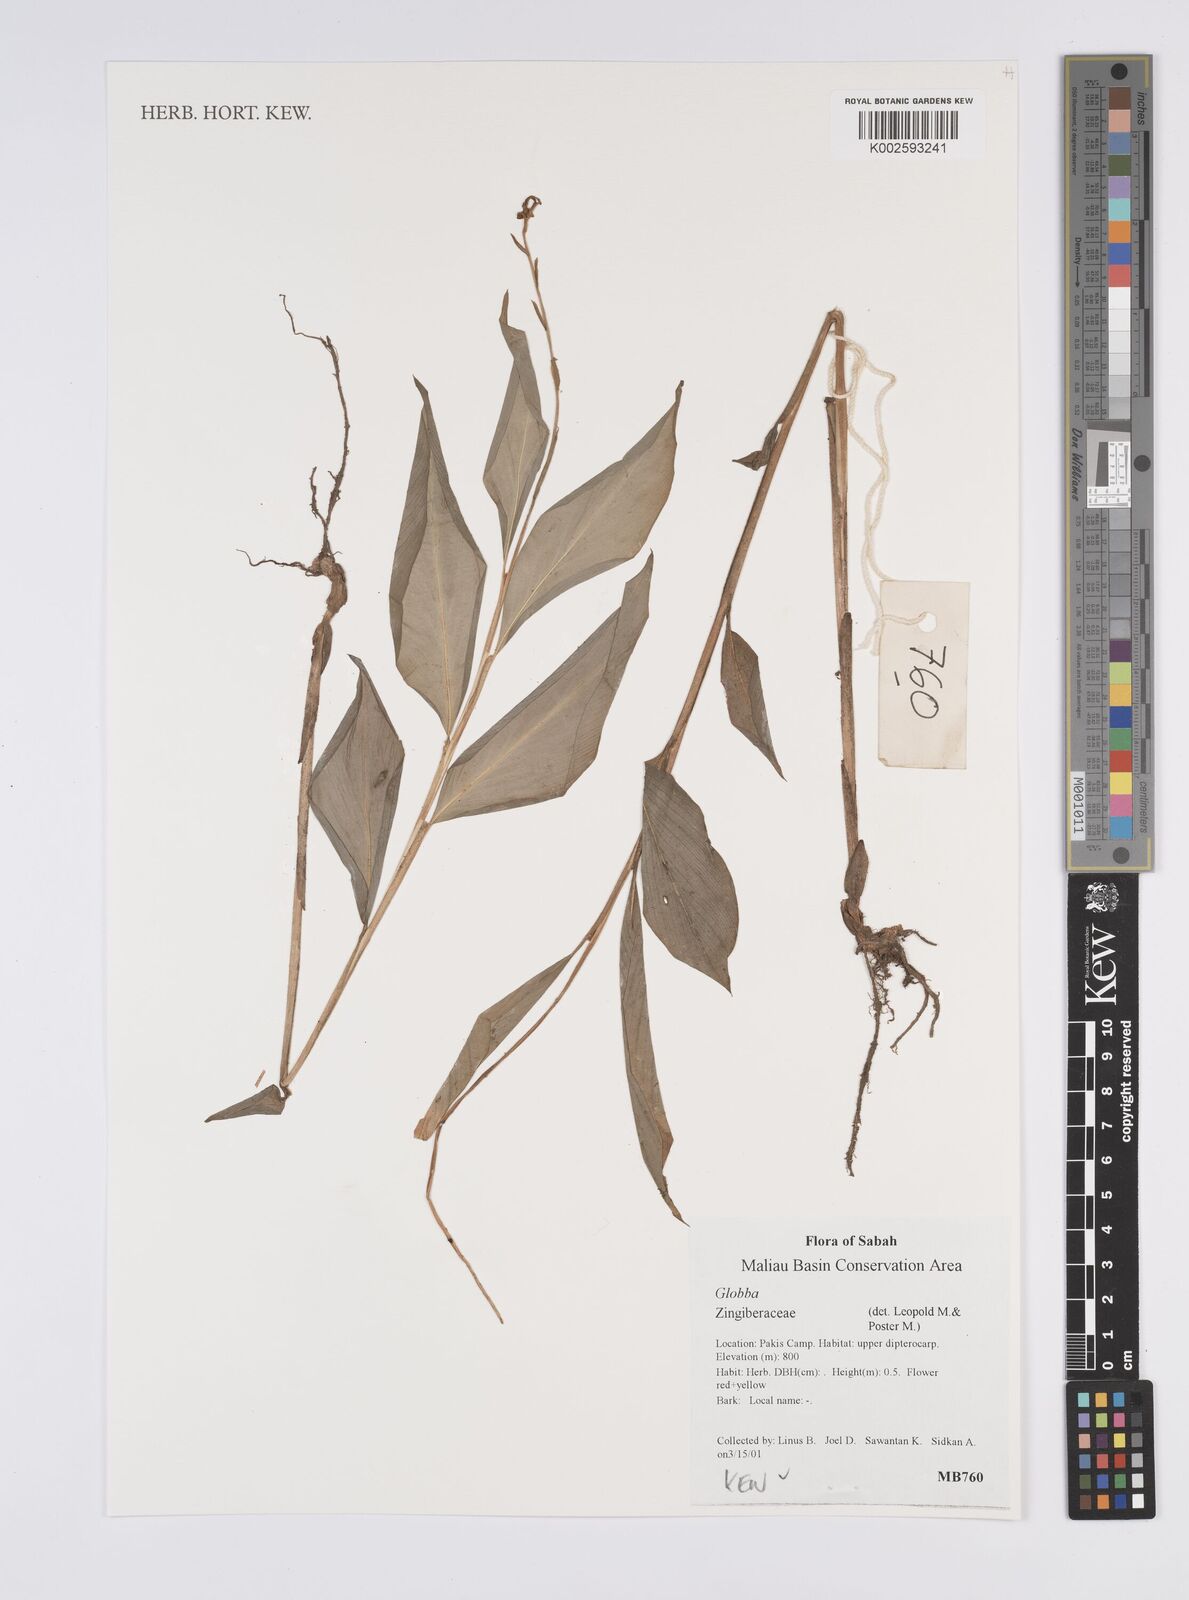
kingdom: Plantae
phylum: Tracheophyta
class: Liliopsida
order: Zingiberales
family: Zingiberaceae
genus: Globba
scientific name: Globba
